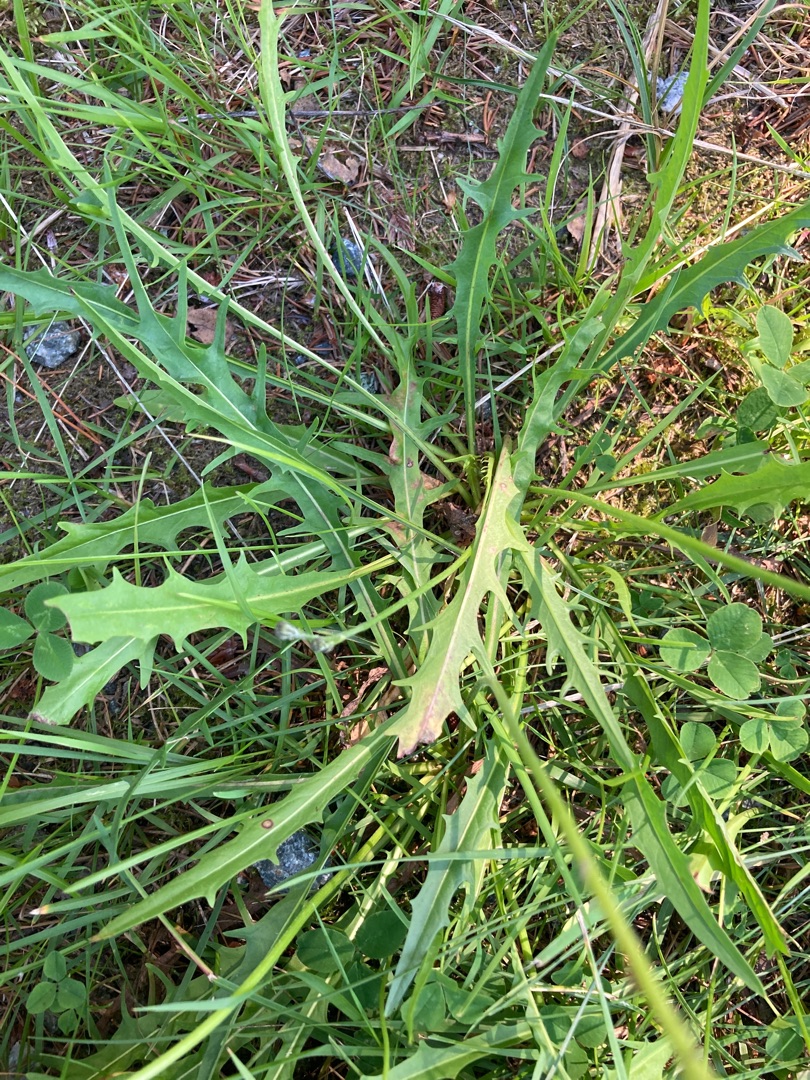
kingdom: Plantae
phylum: Tracheophyta
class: Magnoliopsida
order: Asterales
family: Asteraceae
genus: Scorzoneroides
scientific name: Scorzoneroides autumnalis
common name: Høst-borst
